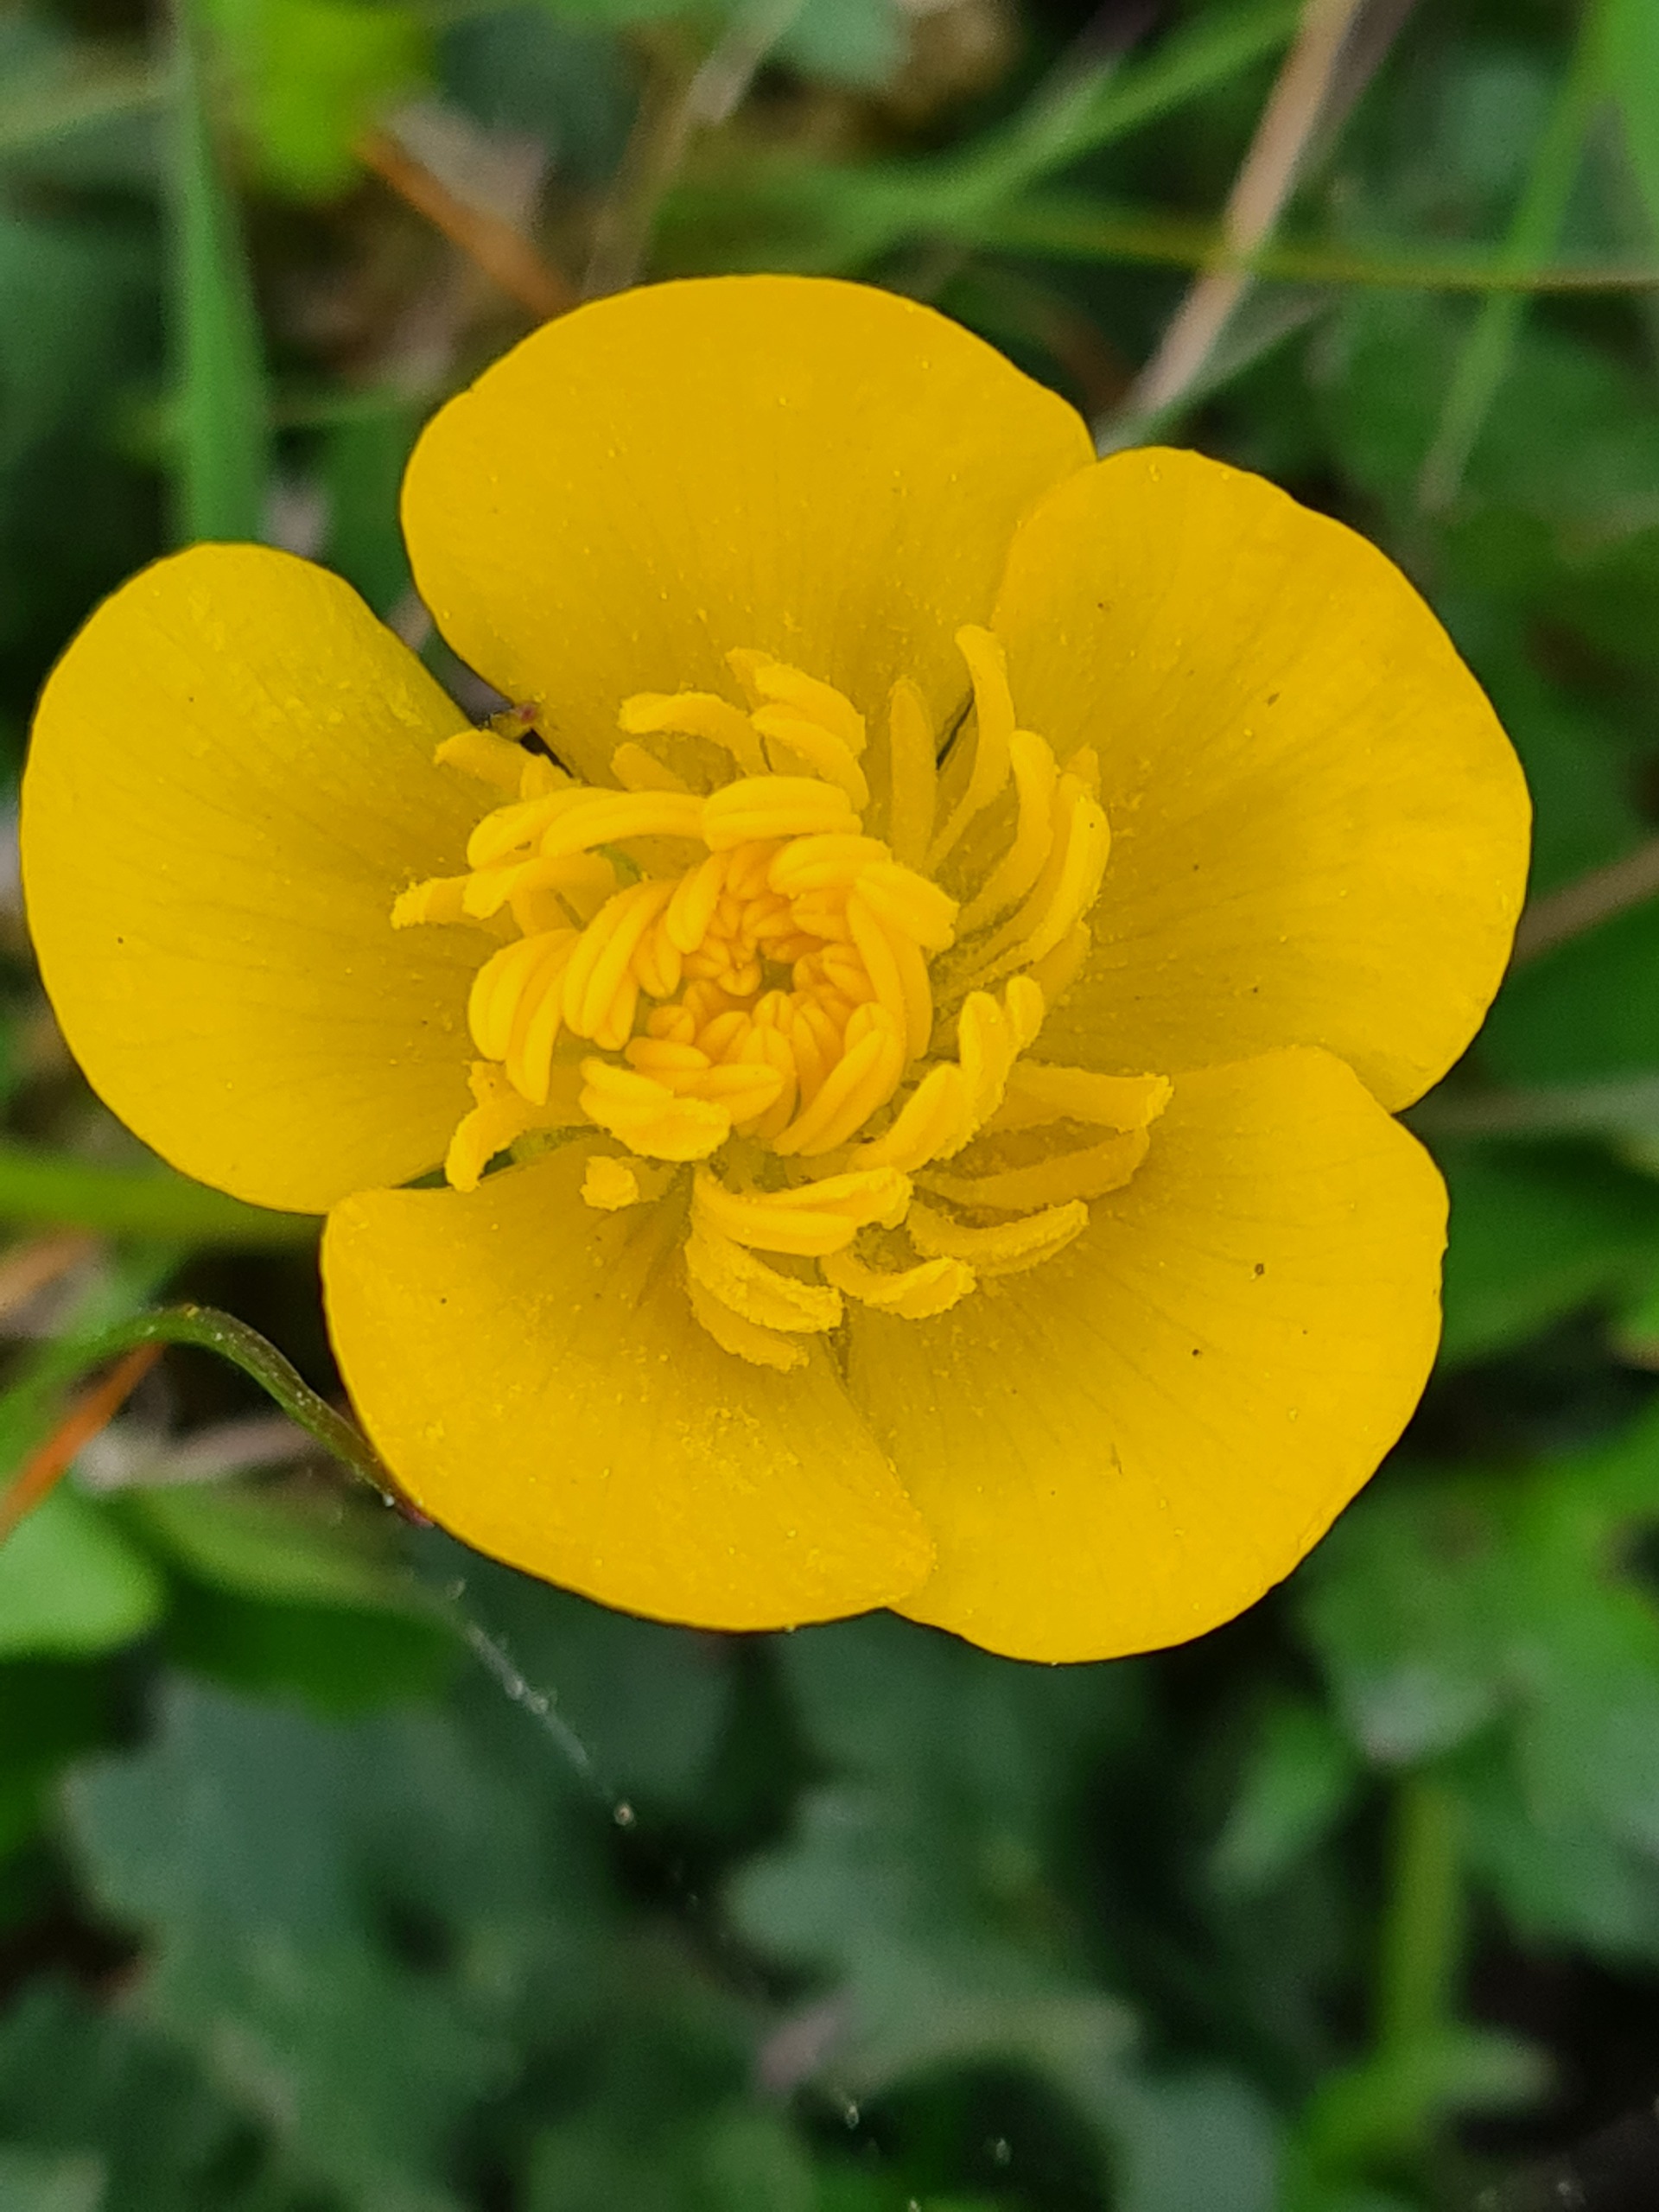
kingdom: Plantae
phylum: Tracheophyta
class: Magnoliopsida
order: Ranunculales
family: Ranunculaceae
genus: Ranunculus
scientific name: Ranunculus bulbosus
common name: Knold-ranunkel
